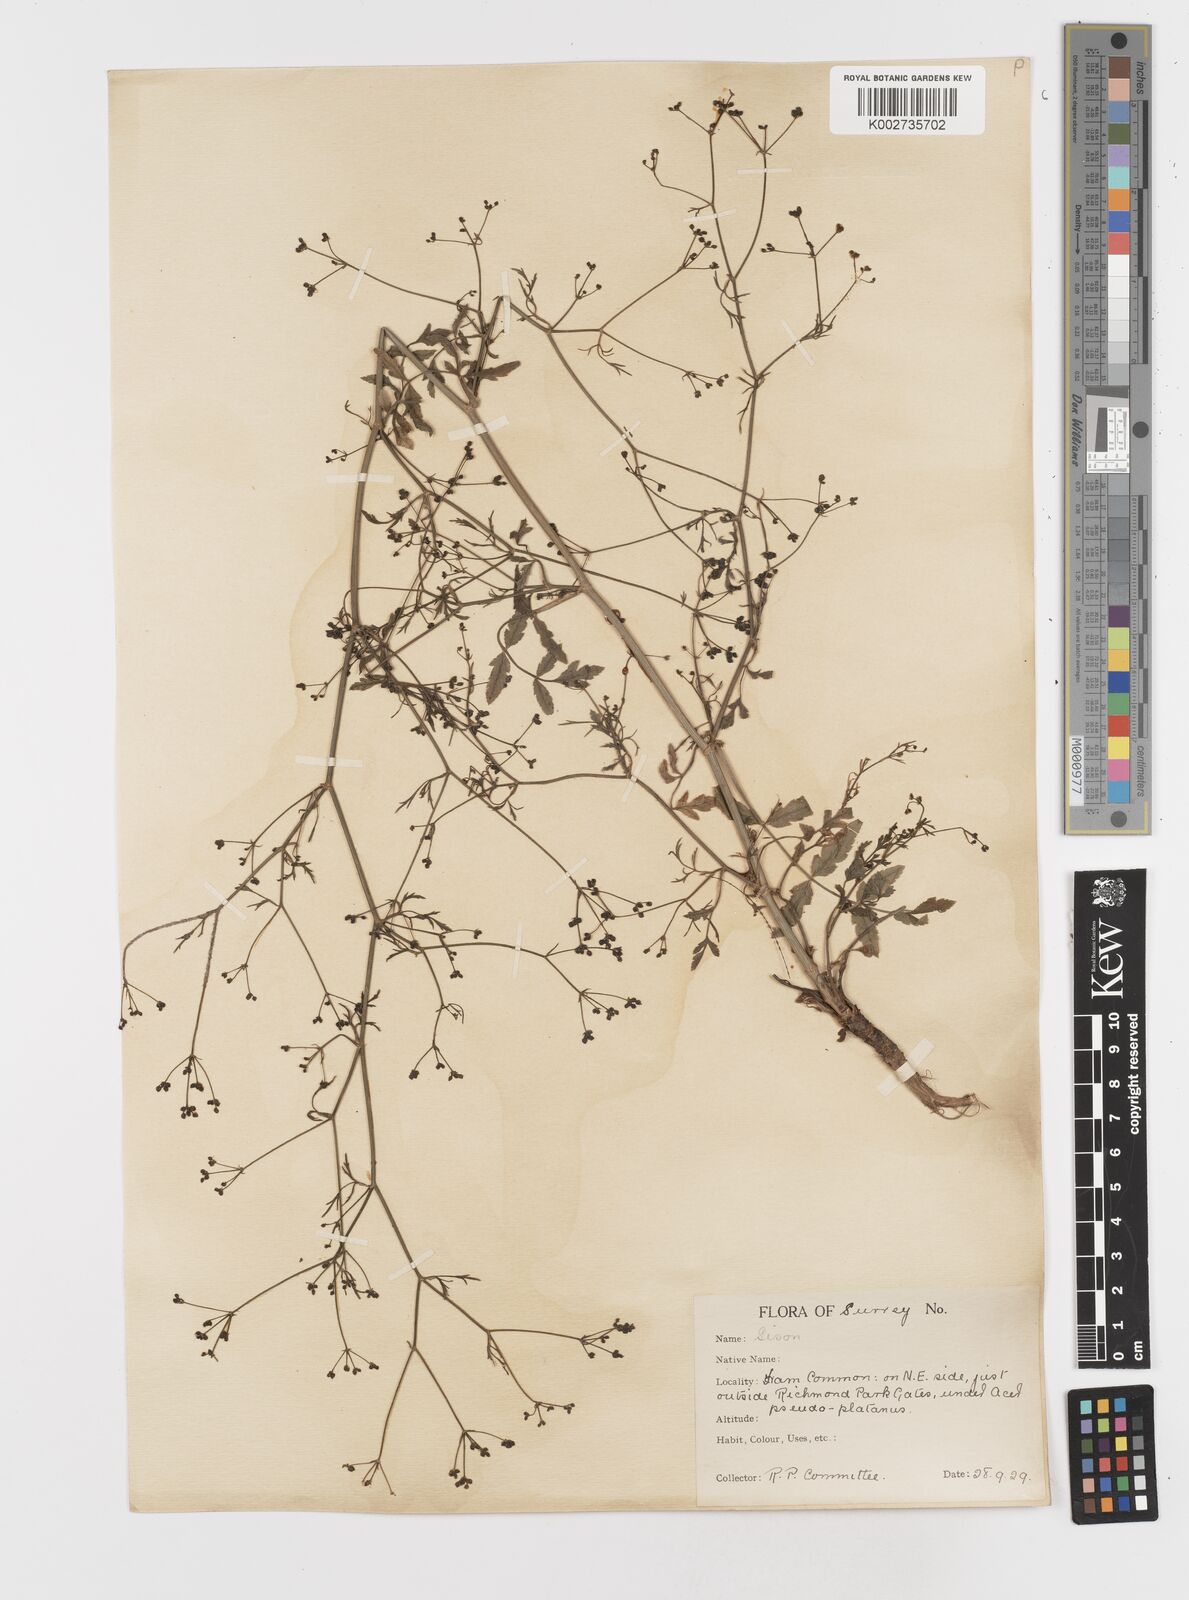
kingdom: Plantae
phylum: Tracheophyta
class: Magnoliopsida
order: Apiales
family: Apiaceae
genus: Sison
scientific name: Sison amomum
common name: Stone-parsley
